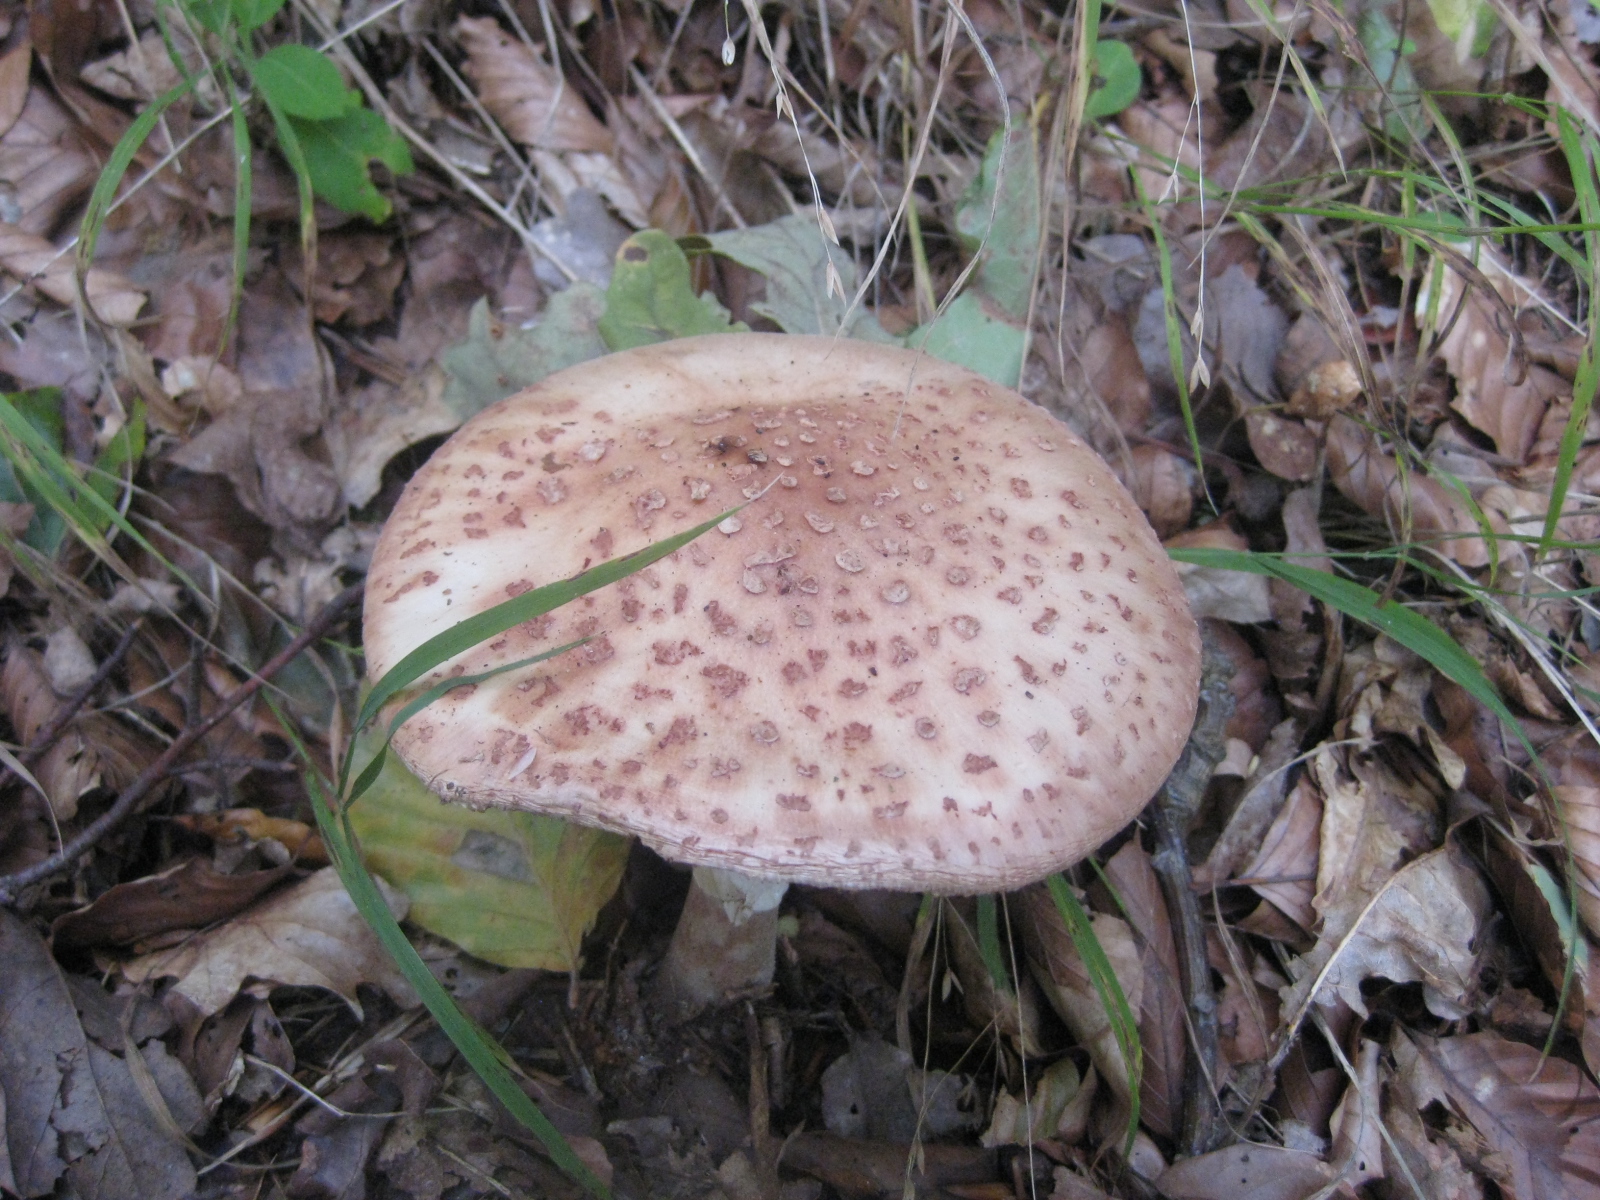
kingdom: Fungi
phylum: Basidiomycota
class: Agaricomycetes
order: Agaricales
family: Amanitaceae
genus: Amanita
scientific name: Amanita rubescens
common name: rødmende fluesvamp
